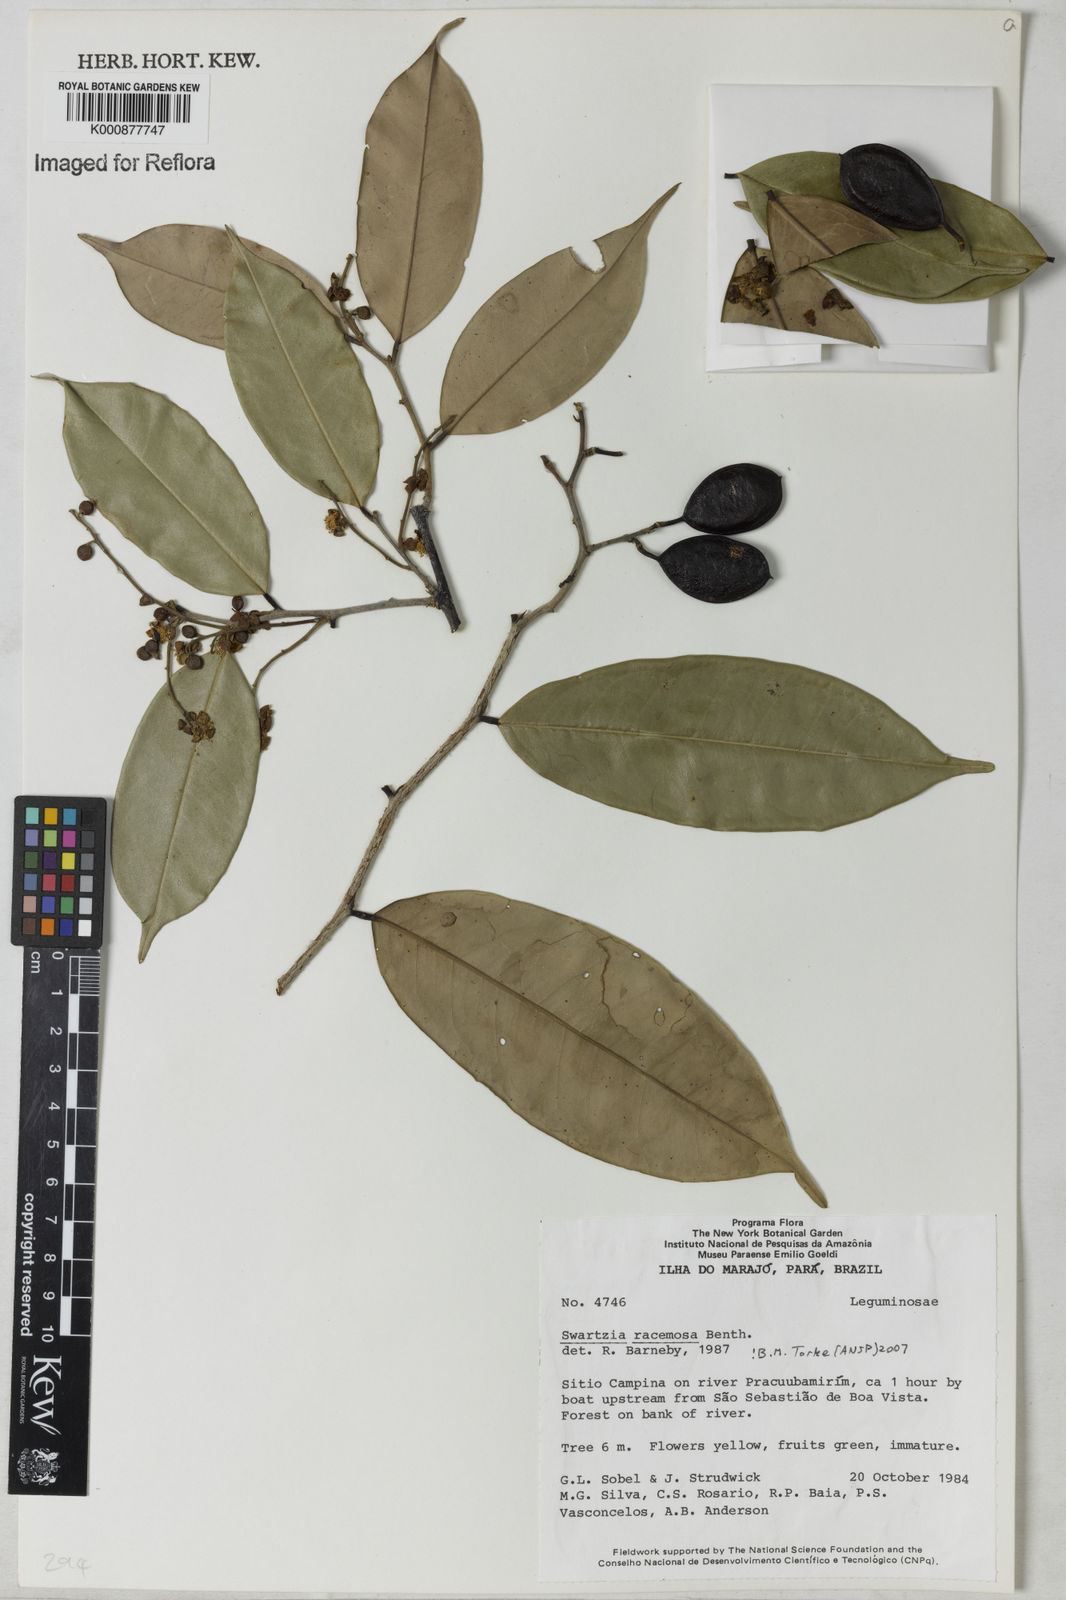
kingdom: Plantae
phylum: Tracheophyta
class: Magnoliopsida
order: Fabales
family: Fabaceae
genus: Swartzia
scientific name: Swartzia racemosa
